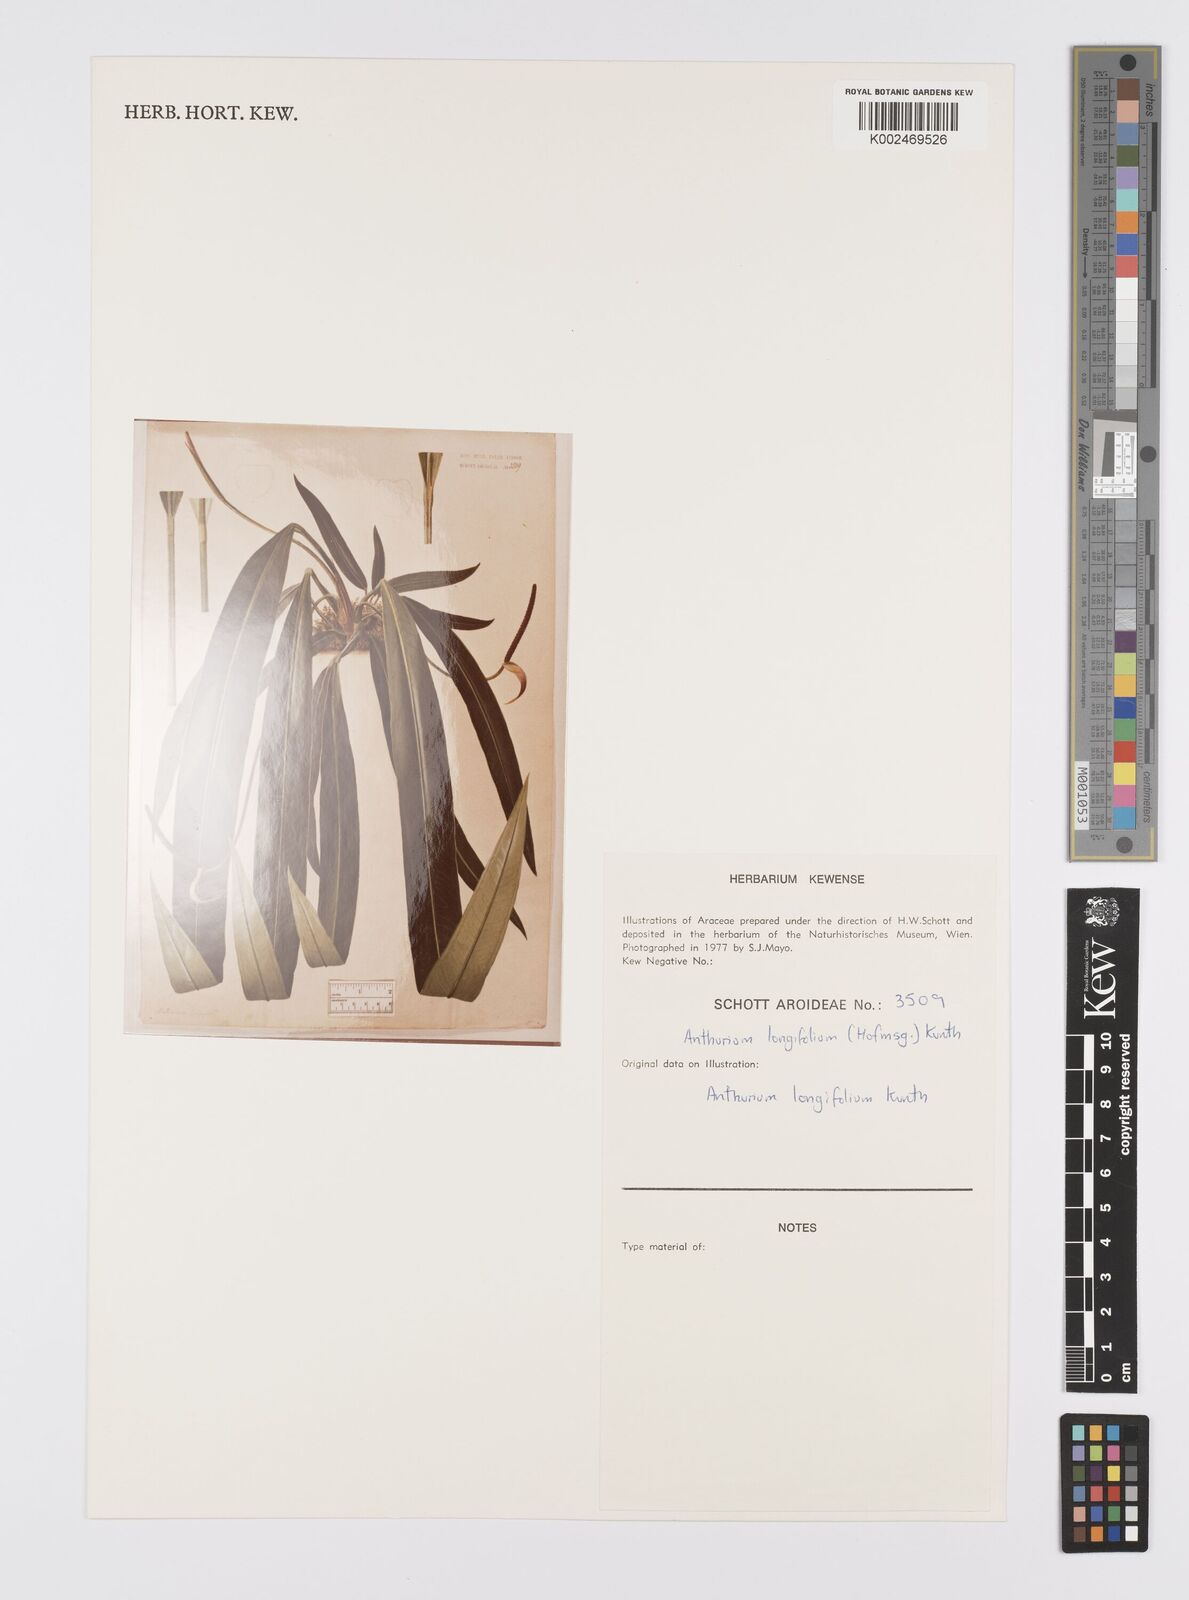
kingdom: Plantae
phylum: Tracheophyta
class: Liliopsida
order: Alismatales
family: Araceae
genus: Anthurium
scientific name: Anthurium longifolium
